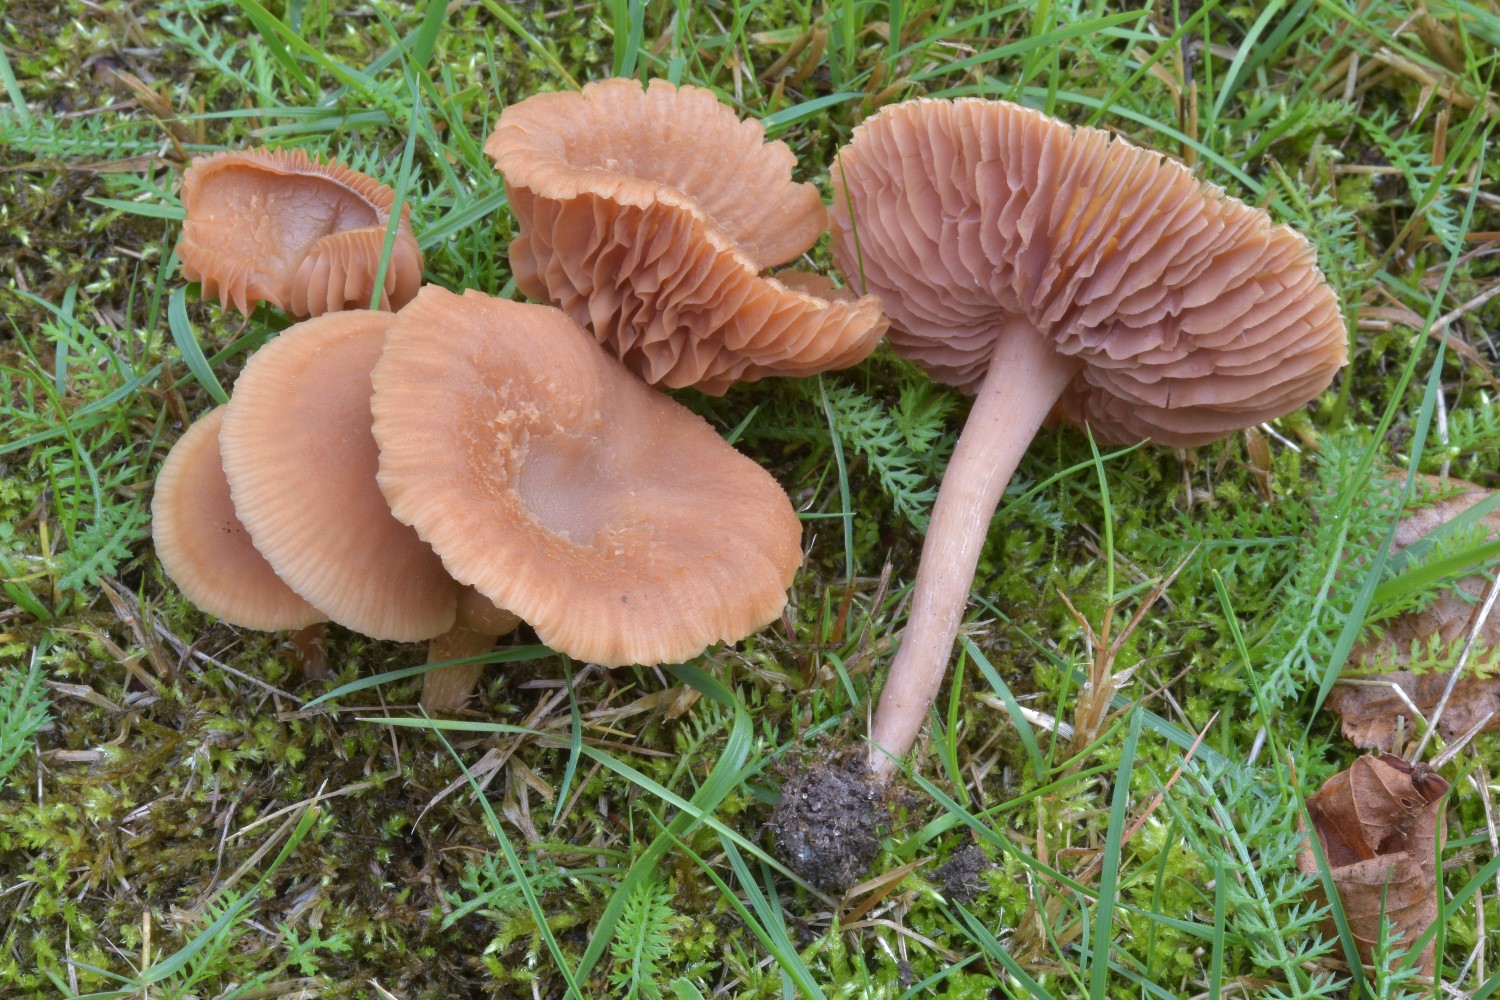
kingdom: Fungi
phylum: Basidiomycota
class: Agaricomycetes
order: Agaricales
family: Hydnangiaceae
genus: Laccaria
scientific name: Laccaria laccata
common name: rød ametysthat
